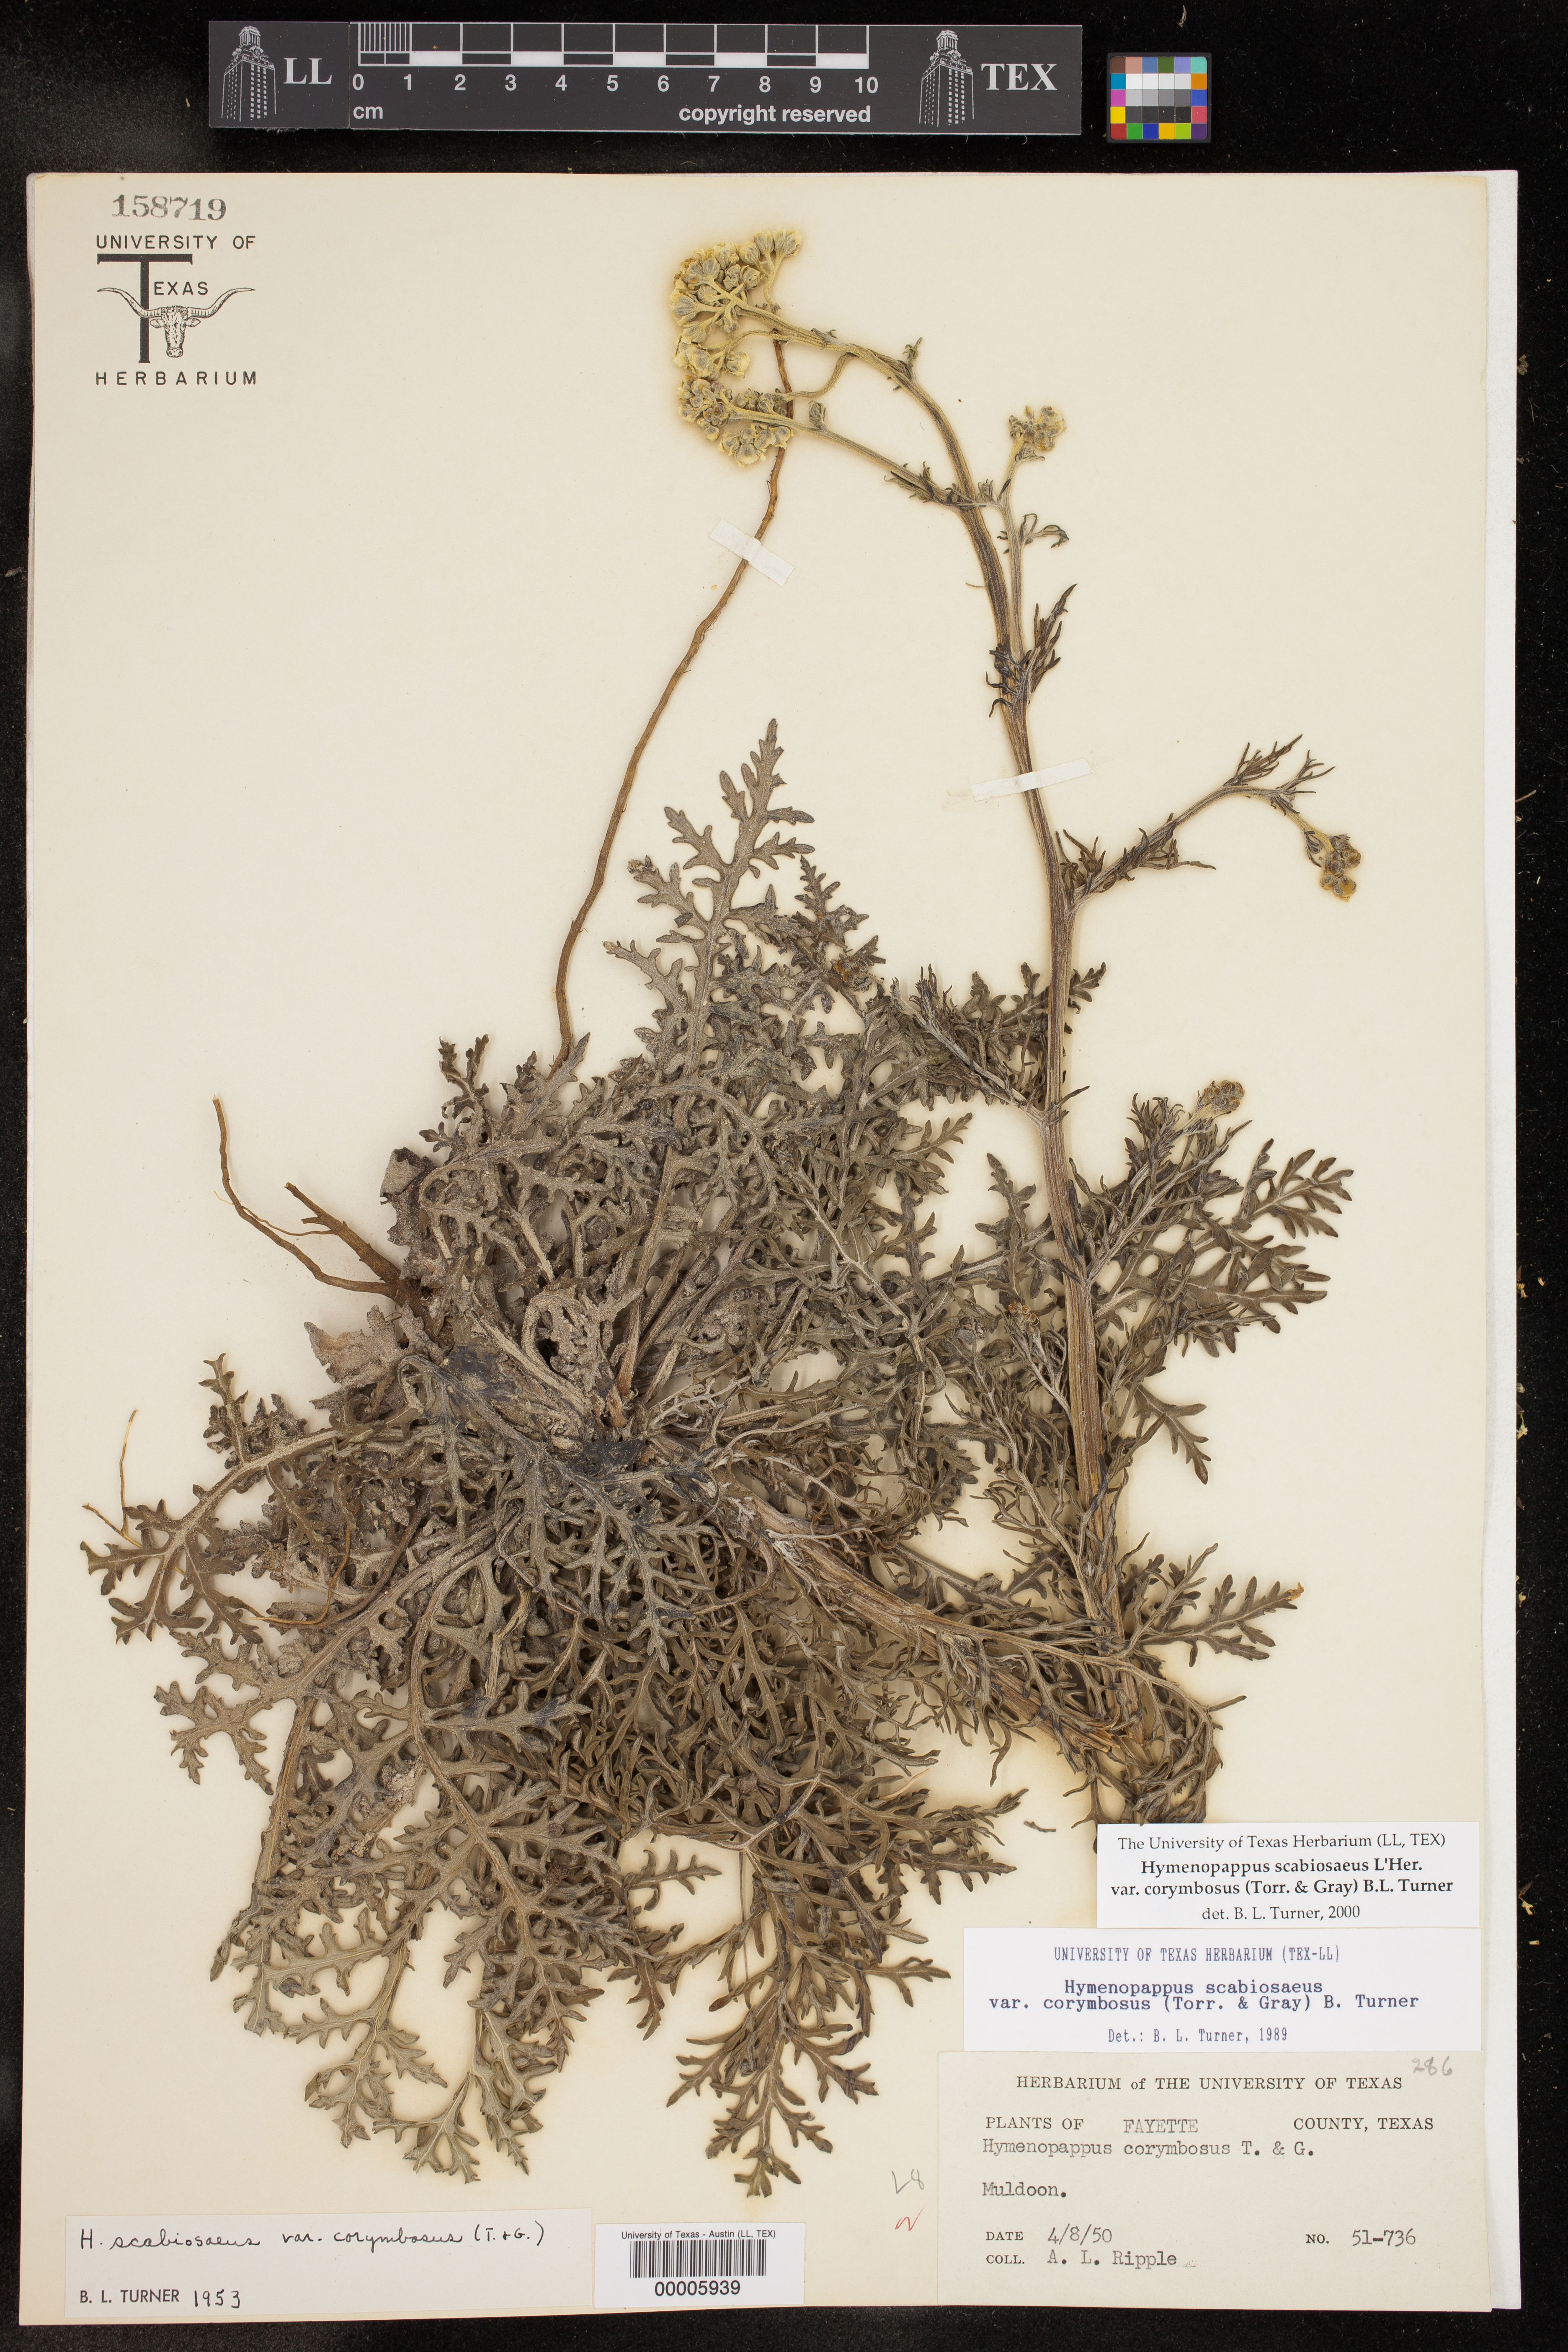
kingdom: Plantae
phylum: Tracheophyta
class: Magnoliopsida
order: Asterales
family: Asteraceae
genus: Hymenopappus
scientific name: Hymenopappus scabiosaeus
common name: Carolina woollywhite
